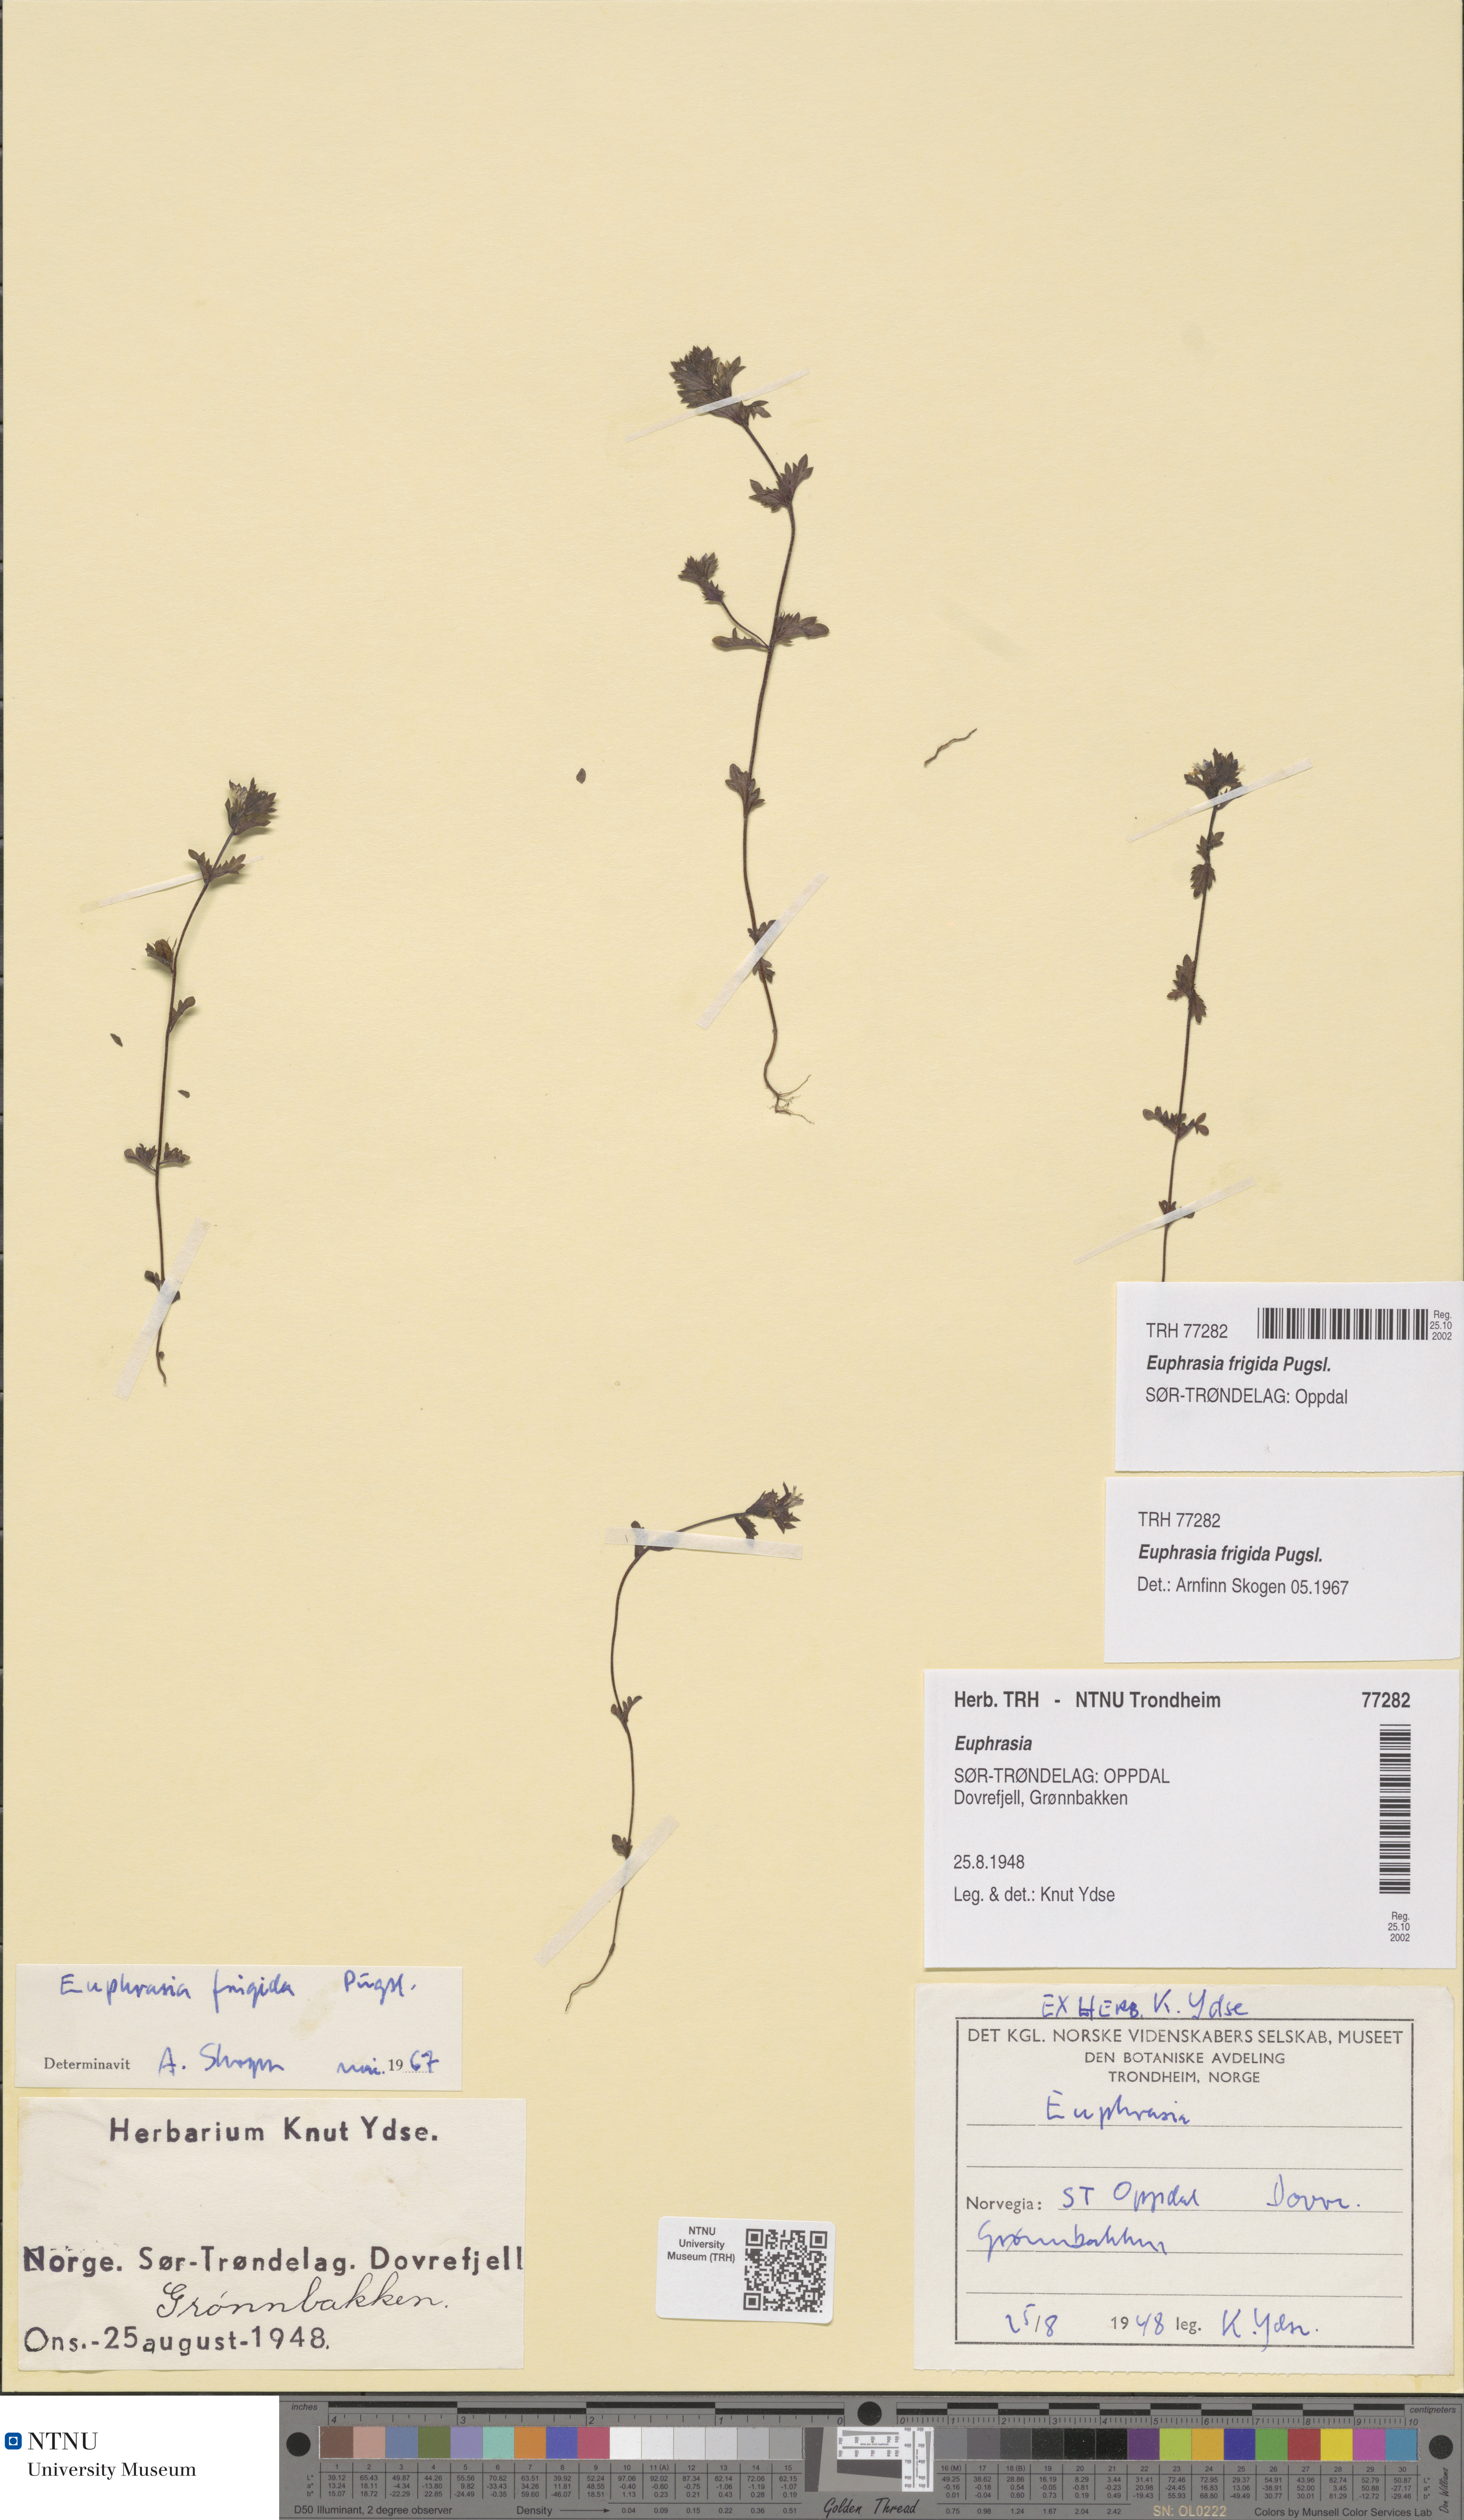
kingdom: Plantae
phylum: Tracheophyta
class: Magnoliopsida
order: Lamiales
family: Orobanchaceae
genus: Euphrasia
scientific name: Euphrasia wettsteinii
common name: Wettstein's eyebright
